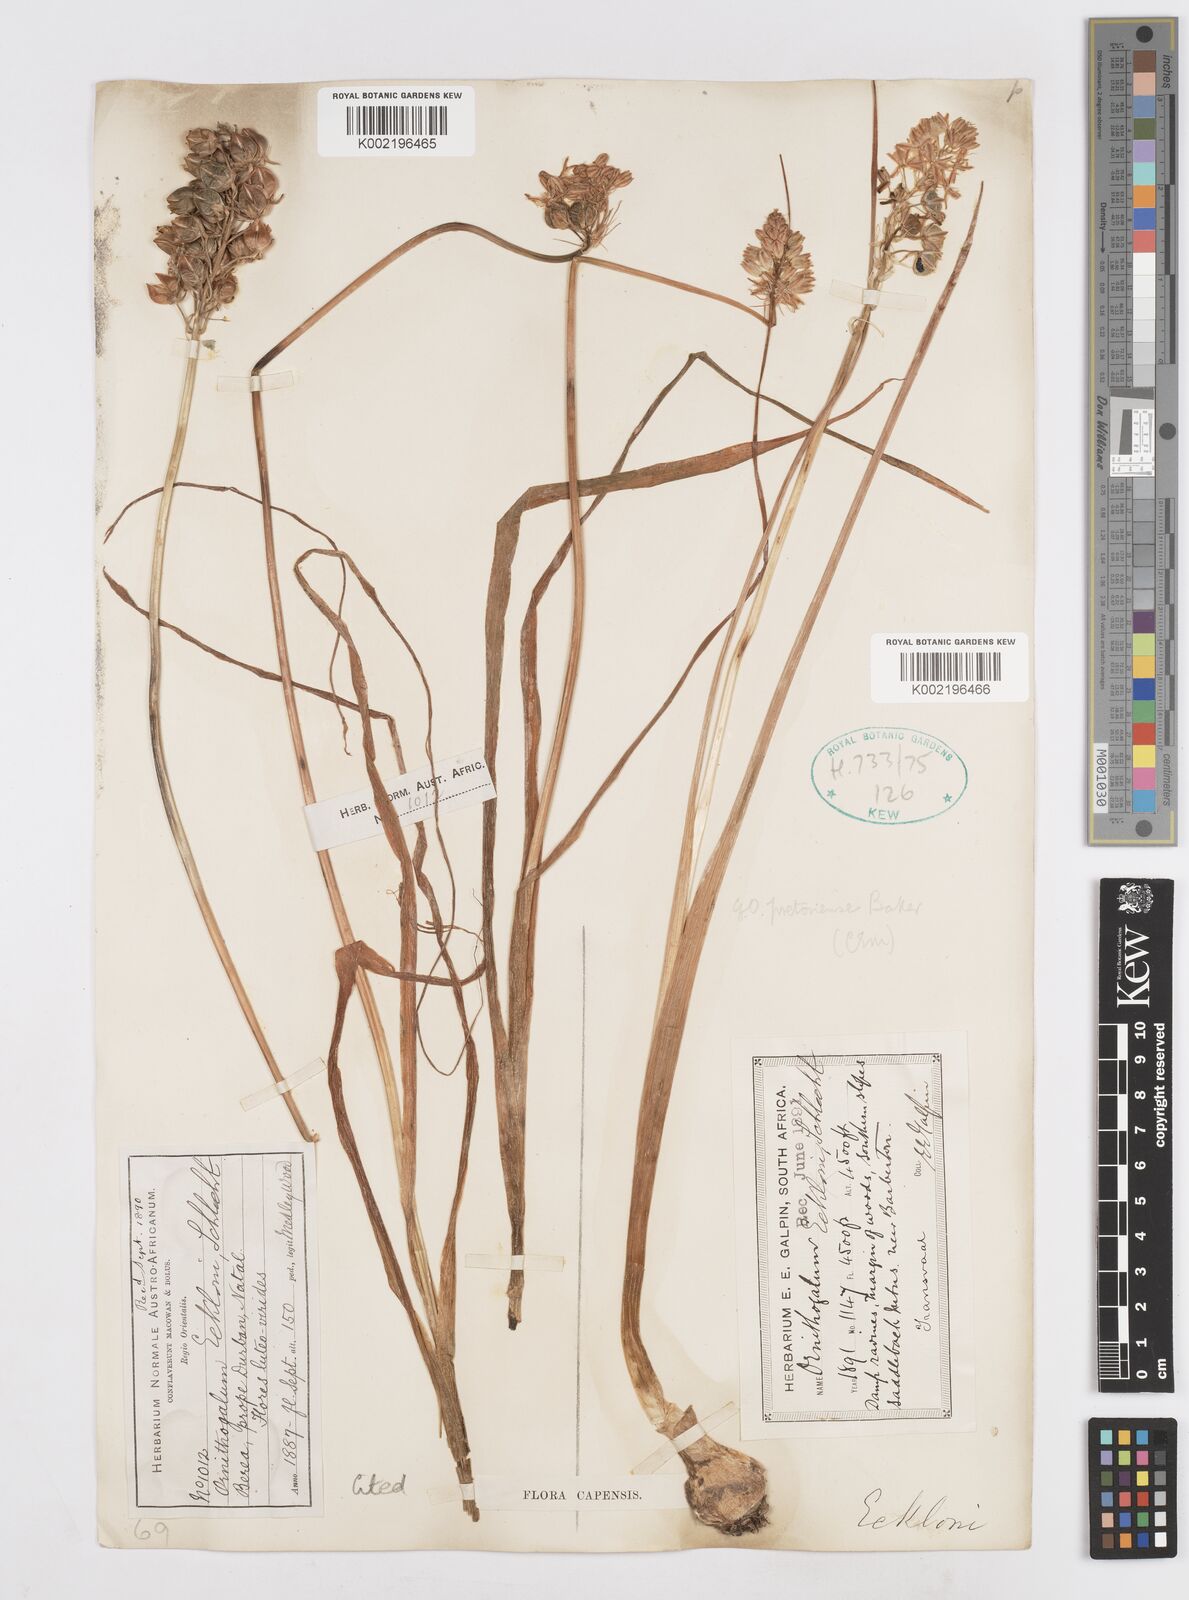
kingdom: Plantae
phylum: Tracheophyta
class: Liliopsida
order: Asparagales
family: Asparagaceae
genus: Albuca
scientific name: Albuca virens
